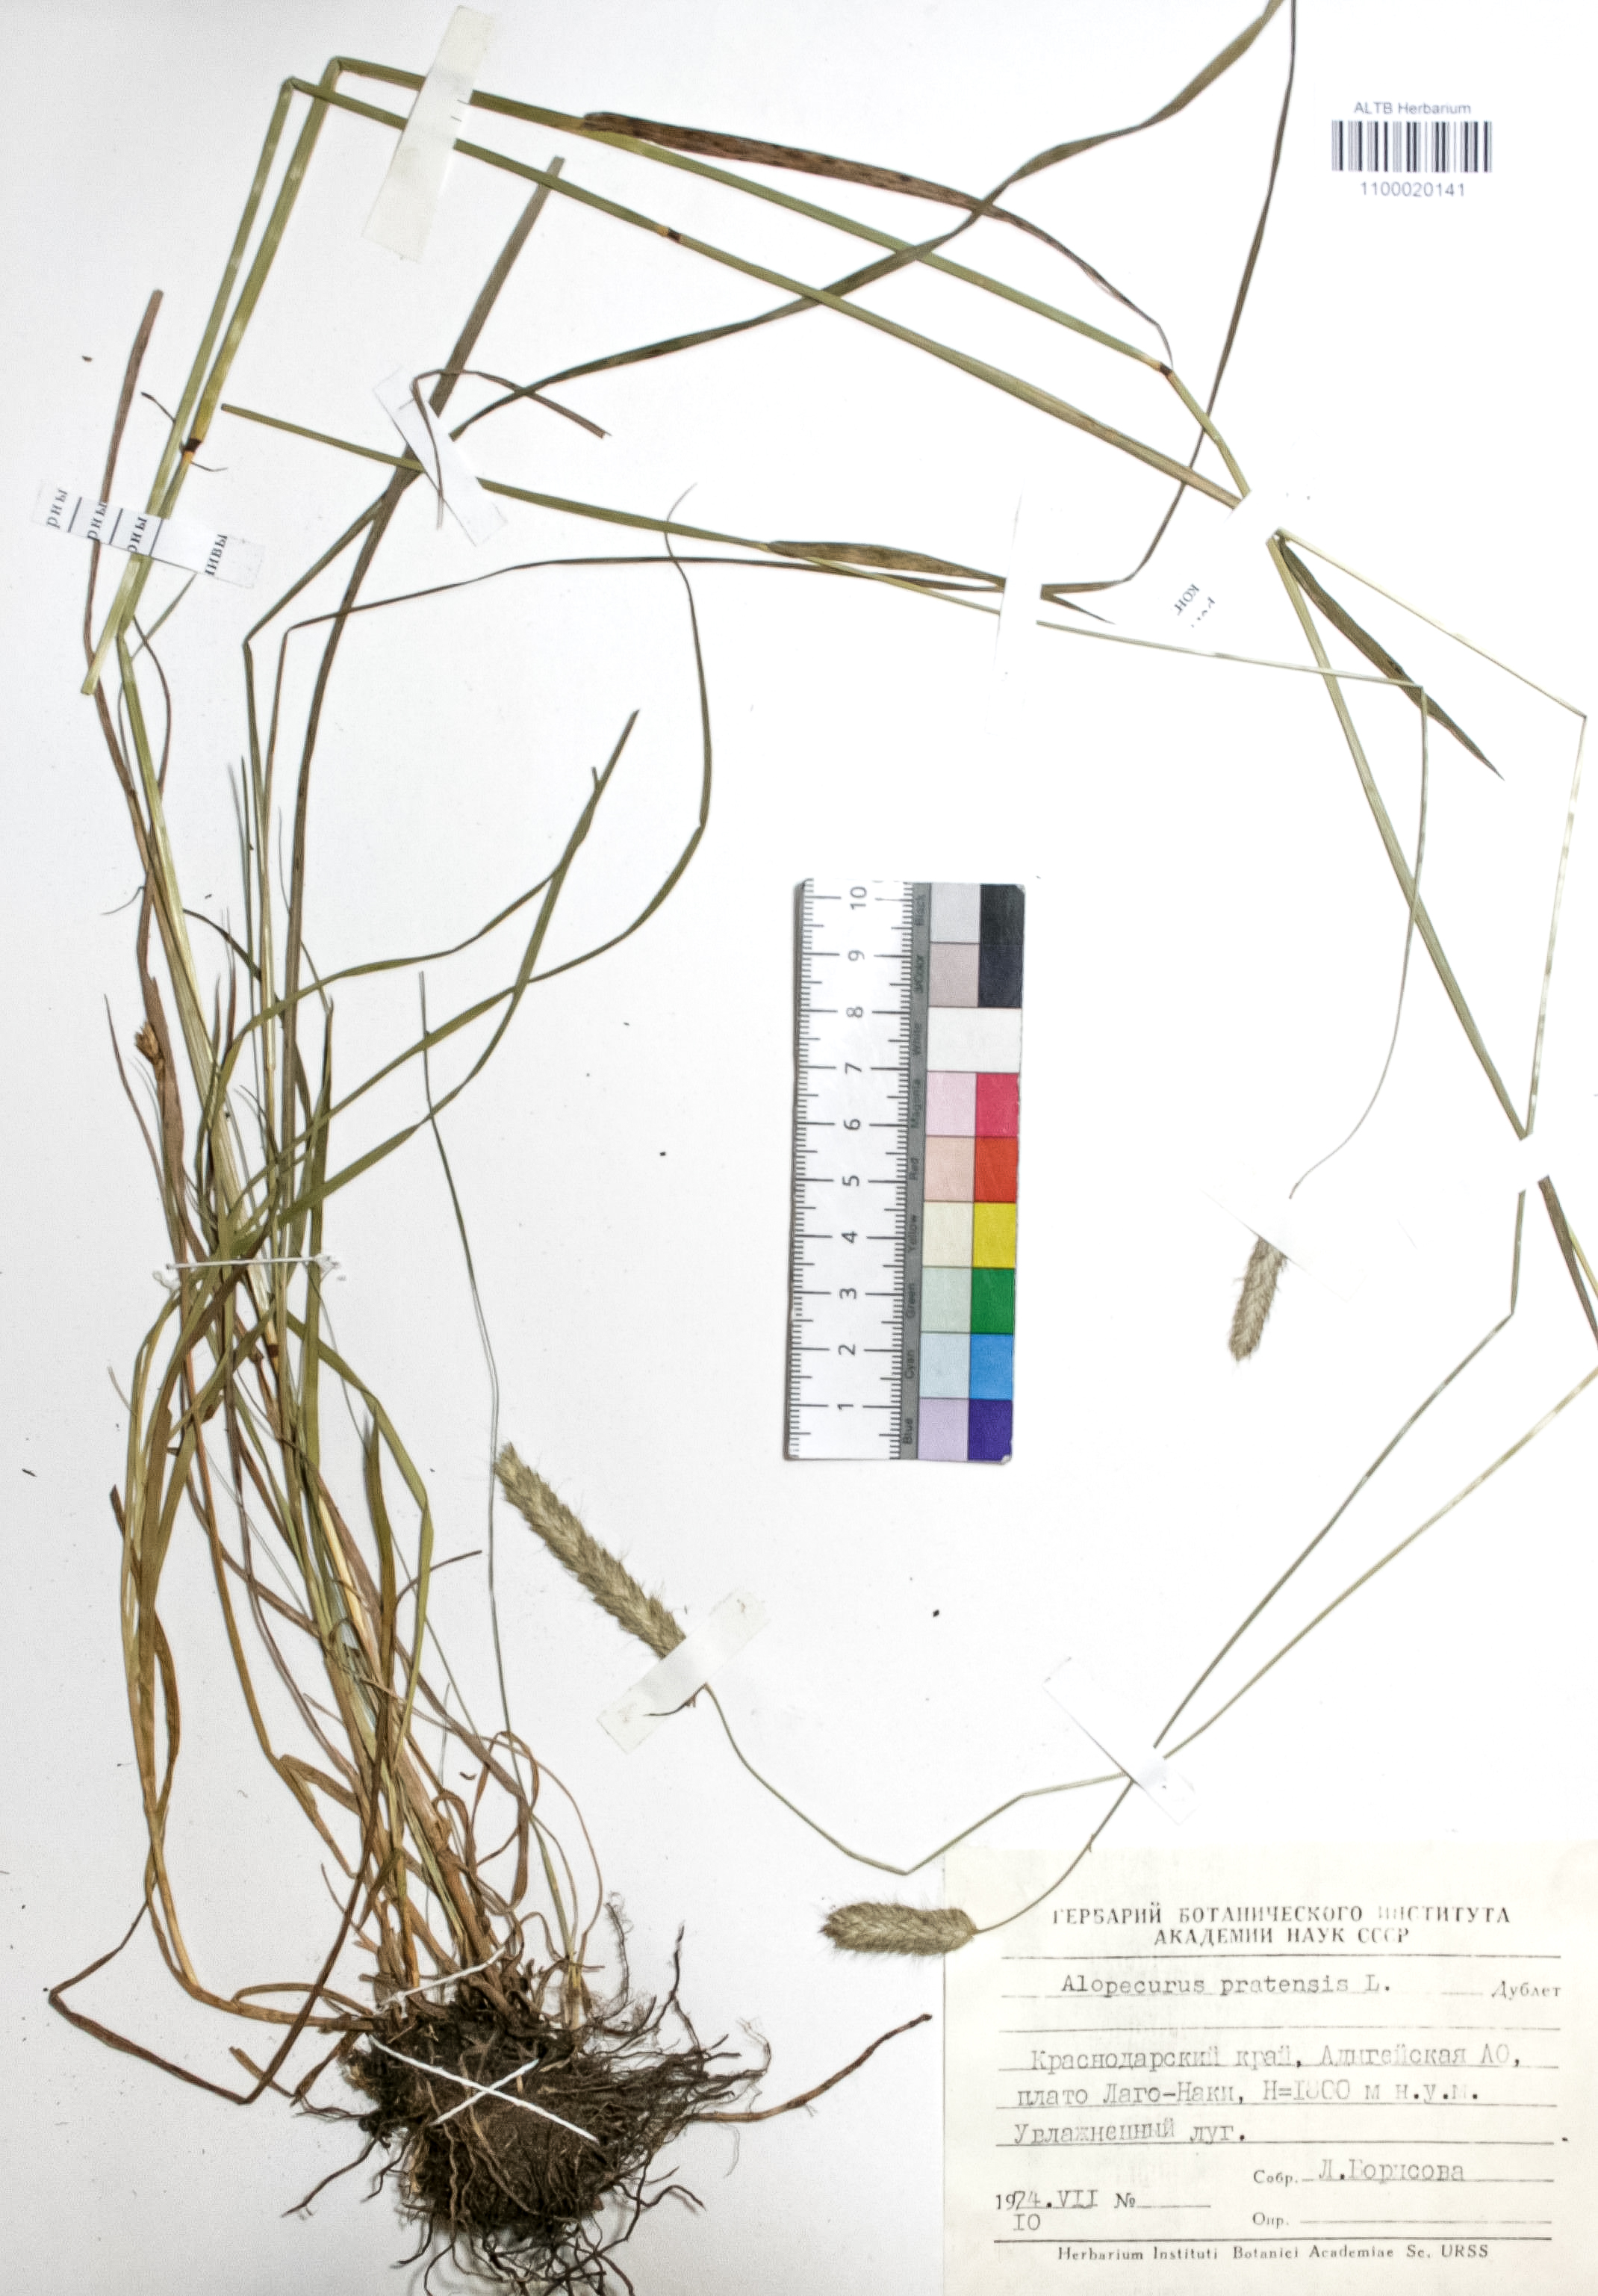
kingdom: Plantae
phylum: Tracheophyta
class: Liliopsida
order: Poales
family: Poaceae
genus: Alopecurus
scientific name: Alopecurus pratensis
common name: Meadow foxtail
